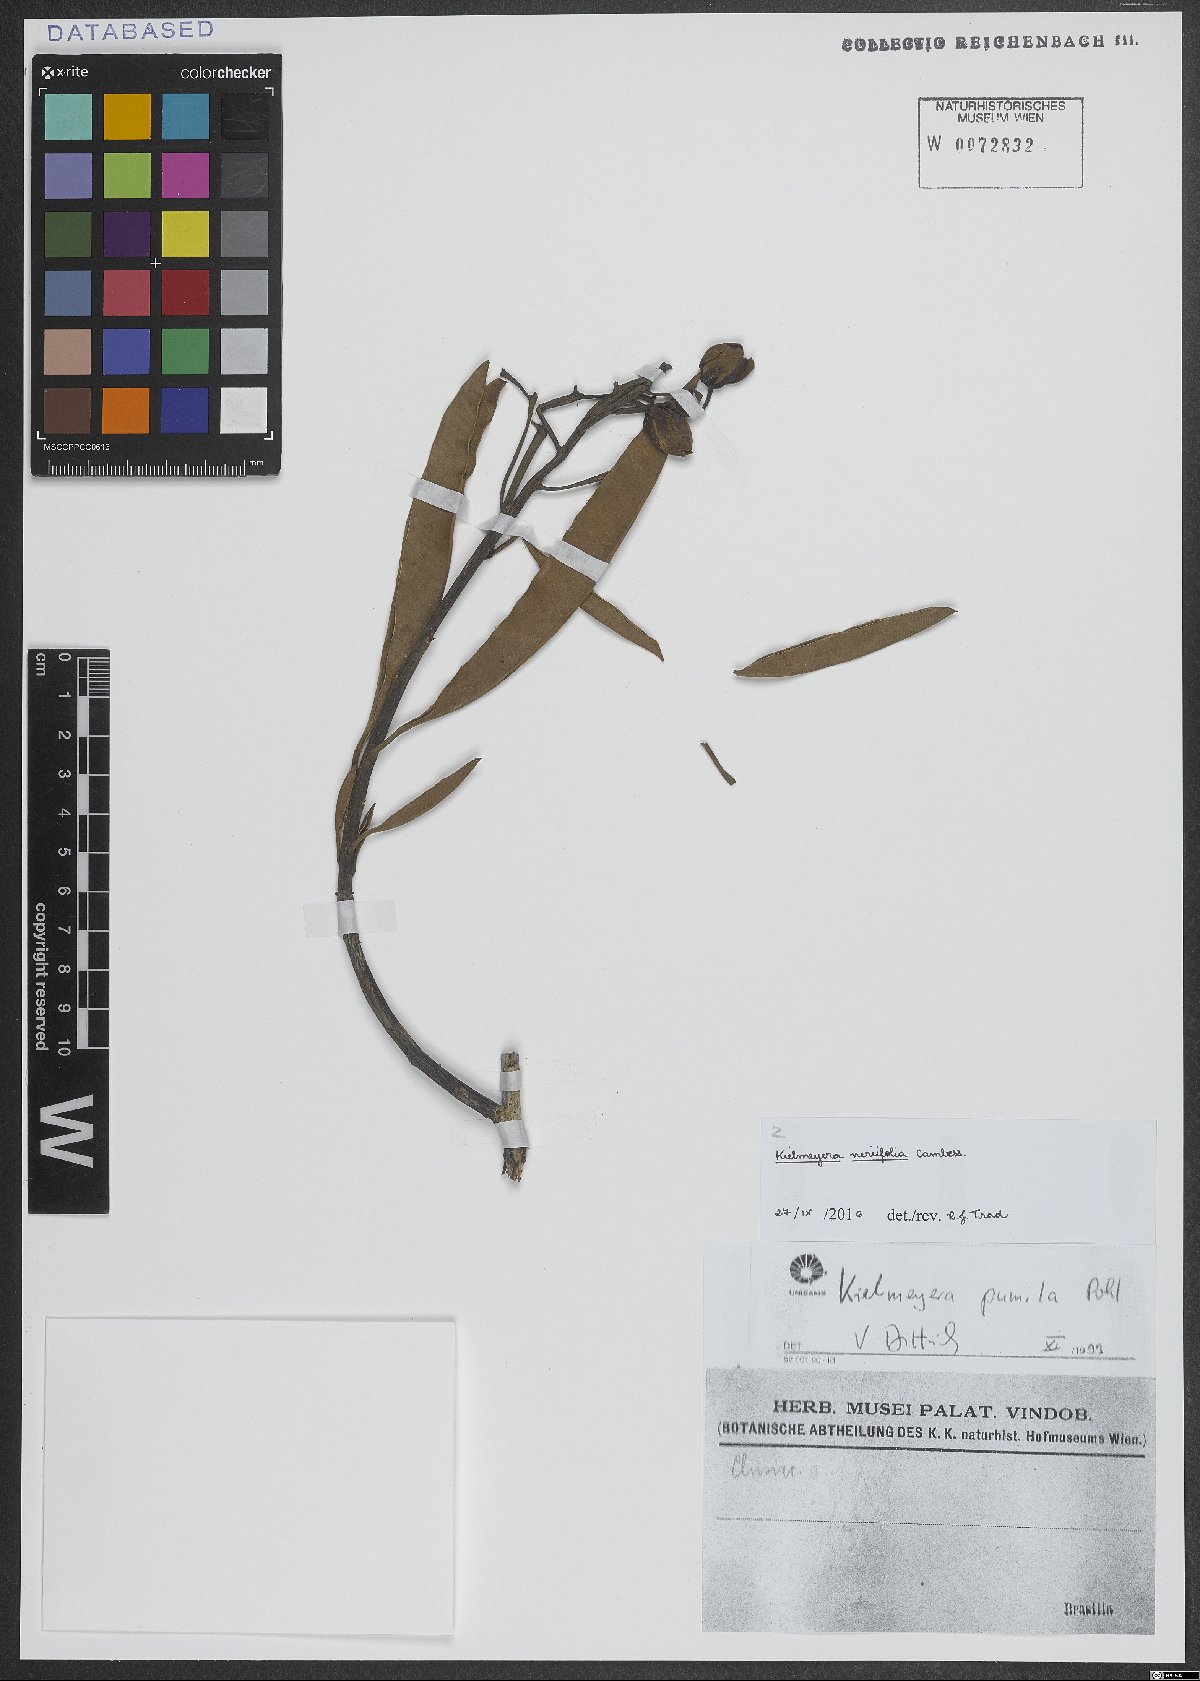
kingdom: Plantae
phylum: Tracheophyta
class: Magnoliopsida
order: Malpighiales
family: Calophyllaceae
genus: Kielmeyera
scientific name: Kielmeyera neriifolia
